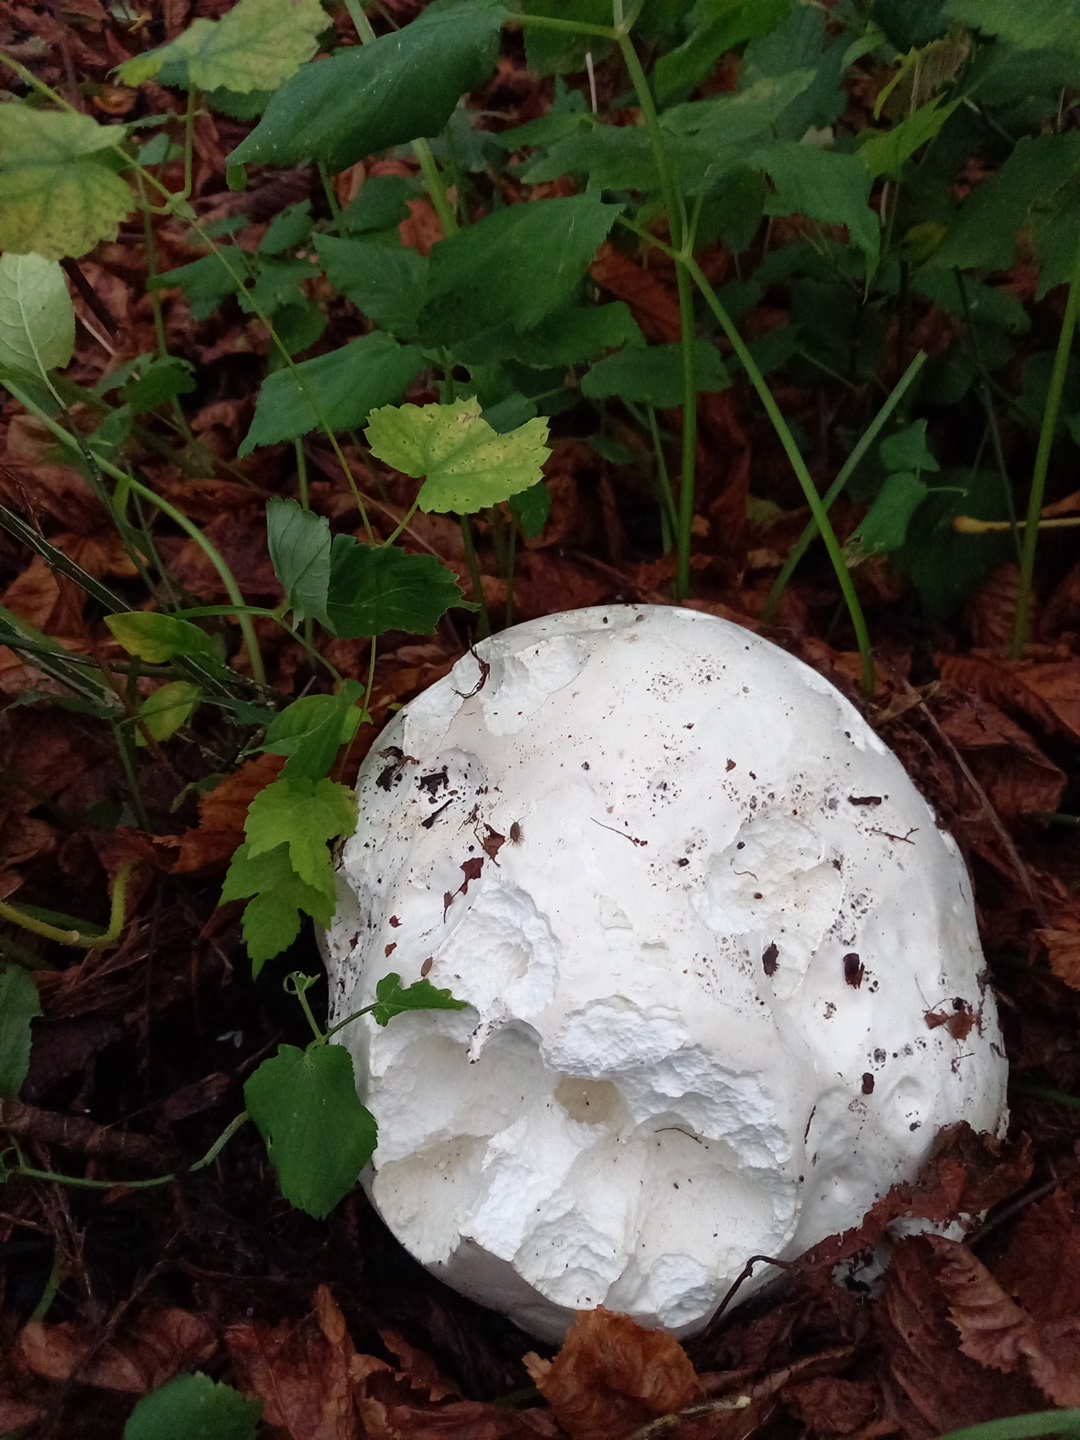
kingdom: Fungi
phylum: Basidiomycota
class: Agaricomycetes
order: Agaricales
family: Lycoperdaceae
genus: Calvatia
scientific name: Calvatia gigantea
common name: kæmpestøvbold
